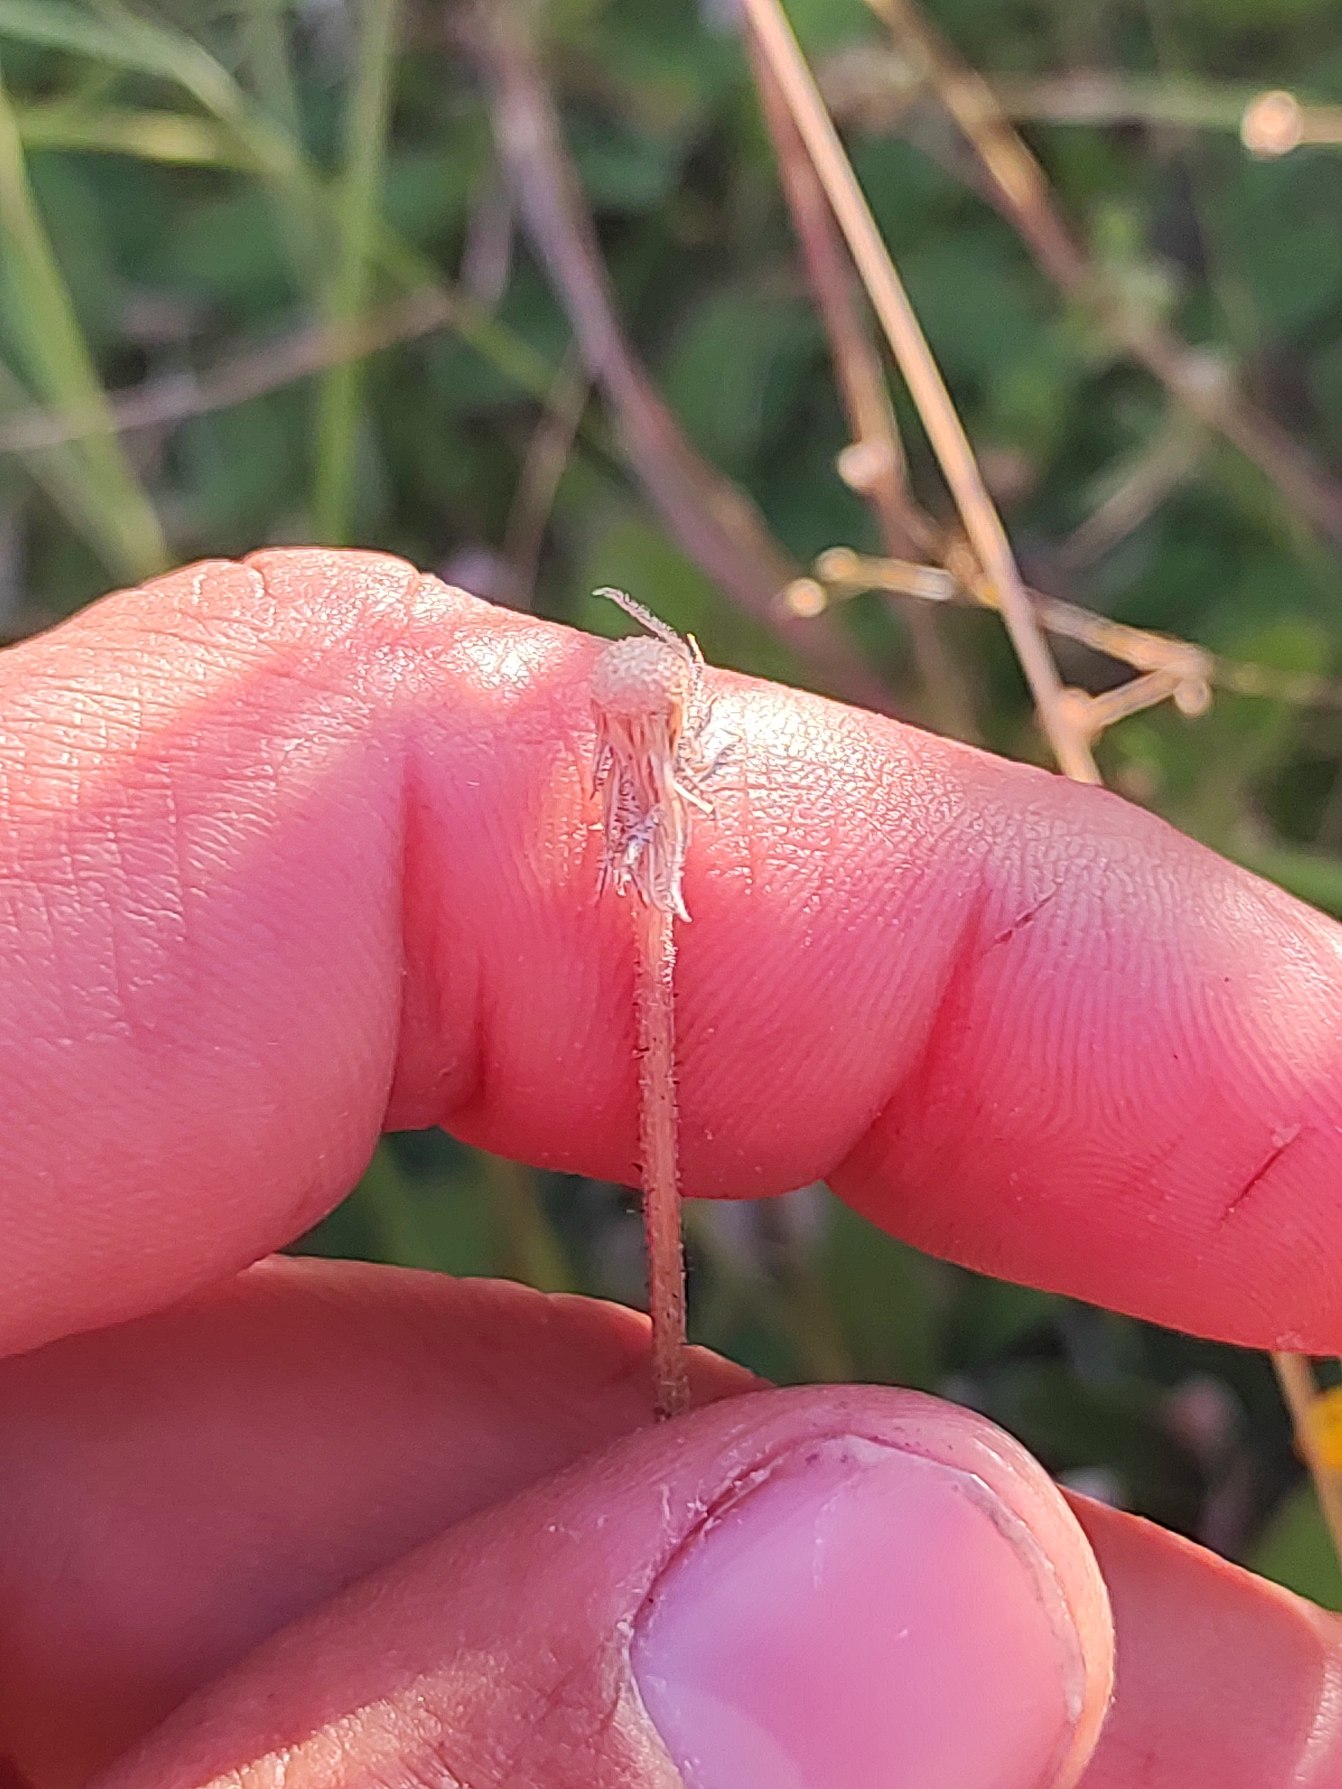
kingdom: Plantae
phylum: Tracheophyta
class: Magnoliopsida
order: Asterales
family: Asteraceae
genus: Pilosella
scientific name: Pilosella officinarum
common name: Håret høgeurt
